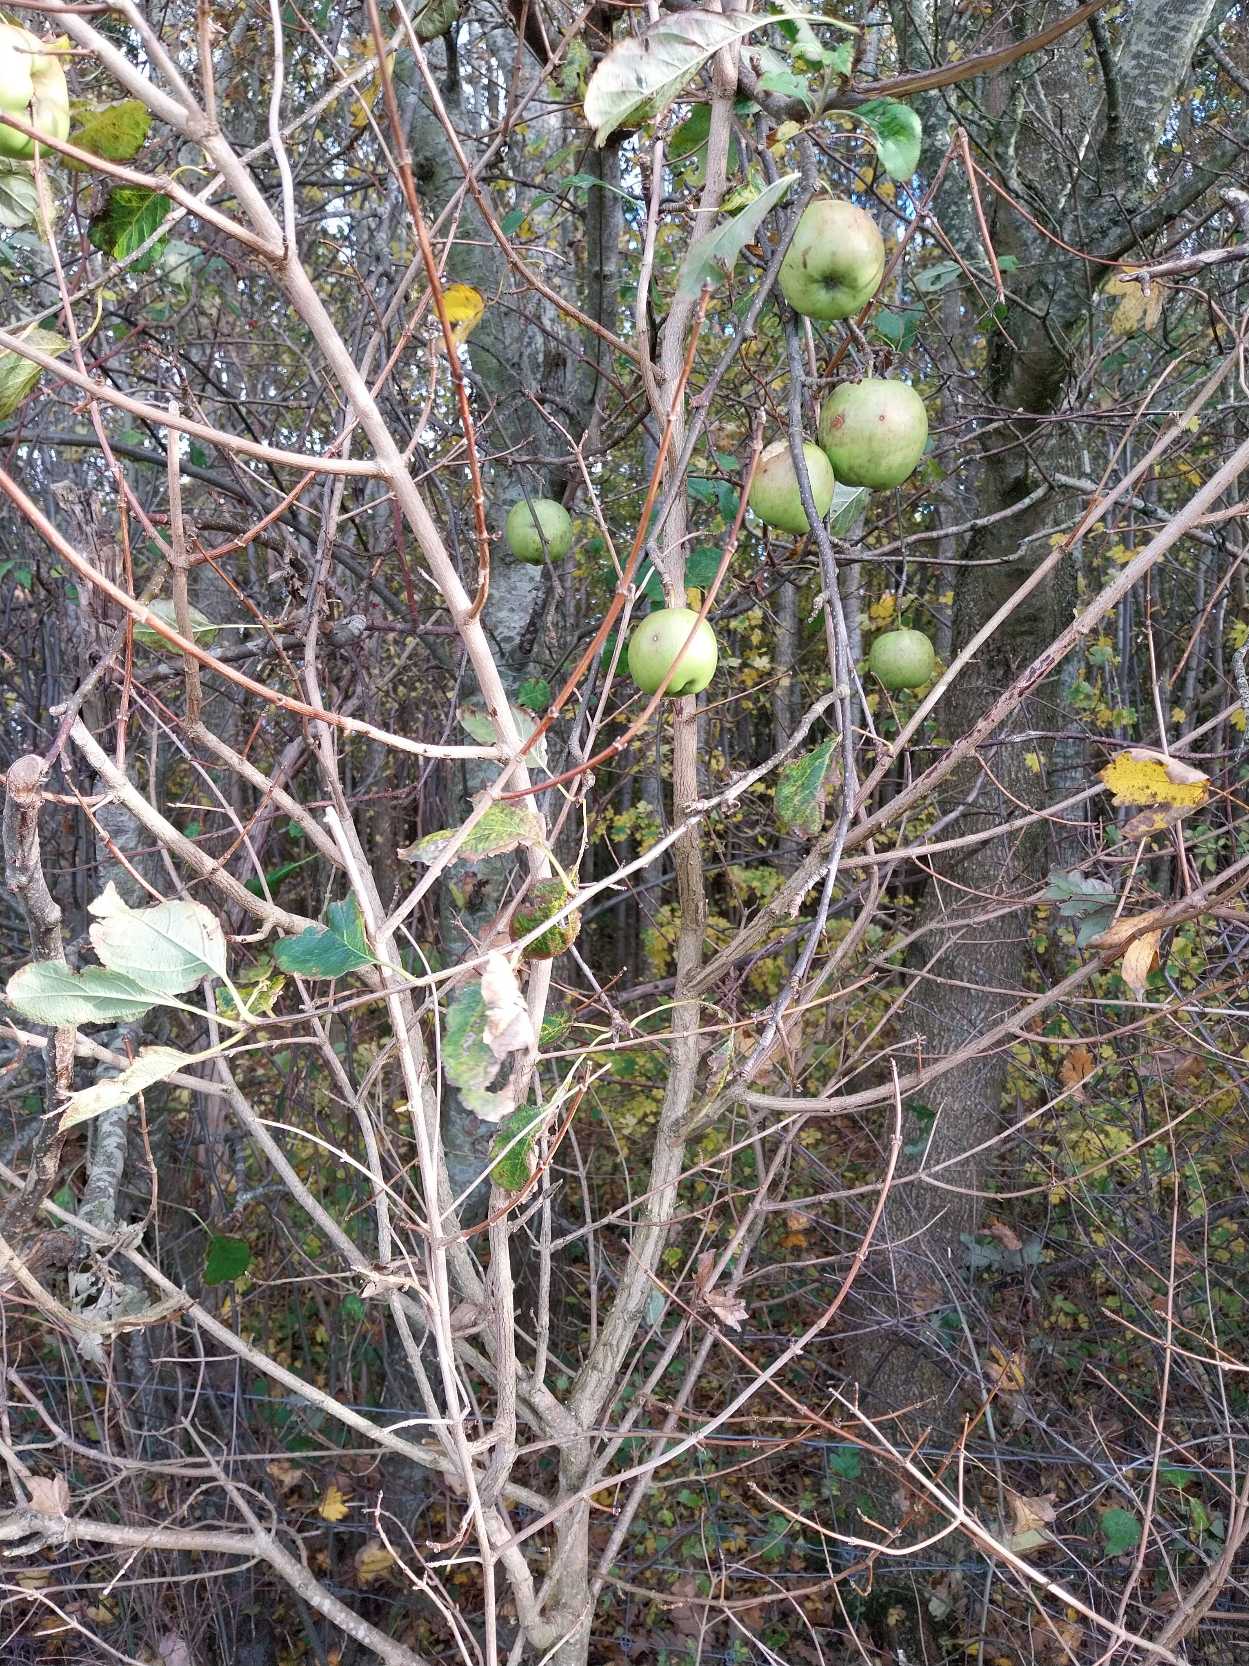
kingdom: Plantae
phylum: Tracheophyta
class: Magnoliopsida
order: Rosales
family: Rosaceae
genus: Malus
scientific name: Malus domestica
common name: Sød-æble
